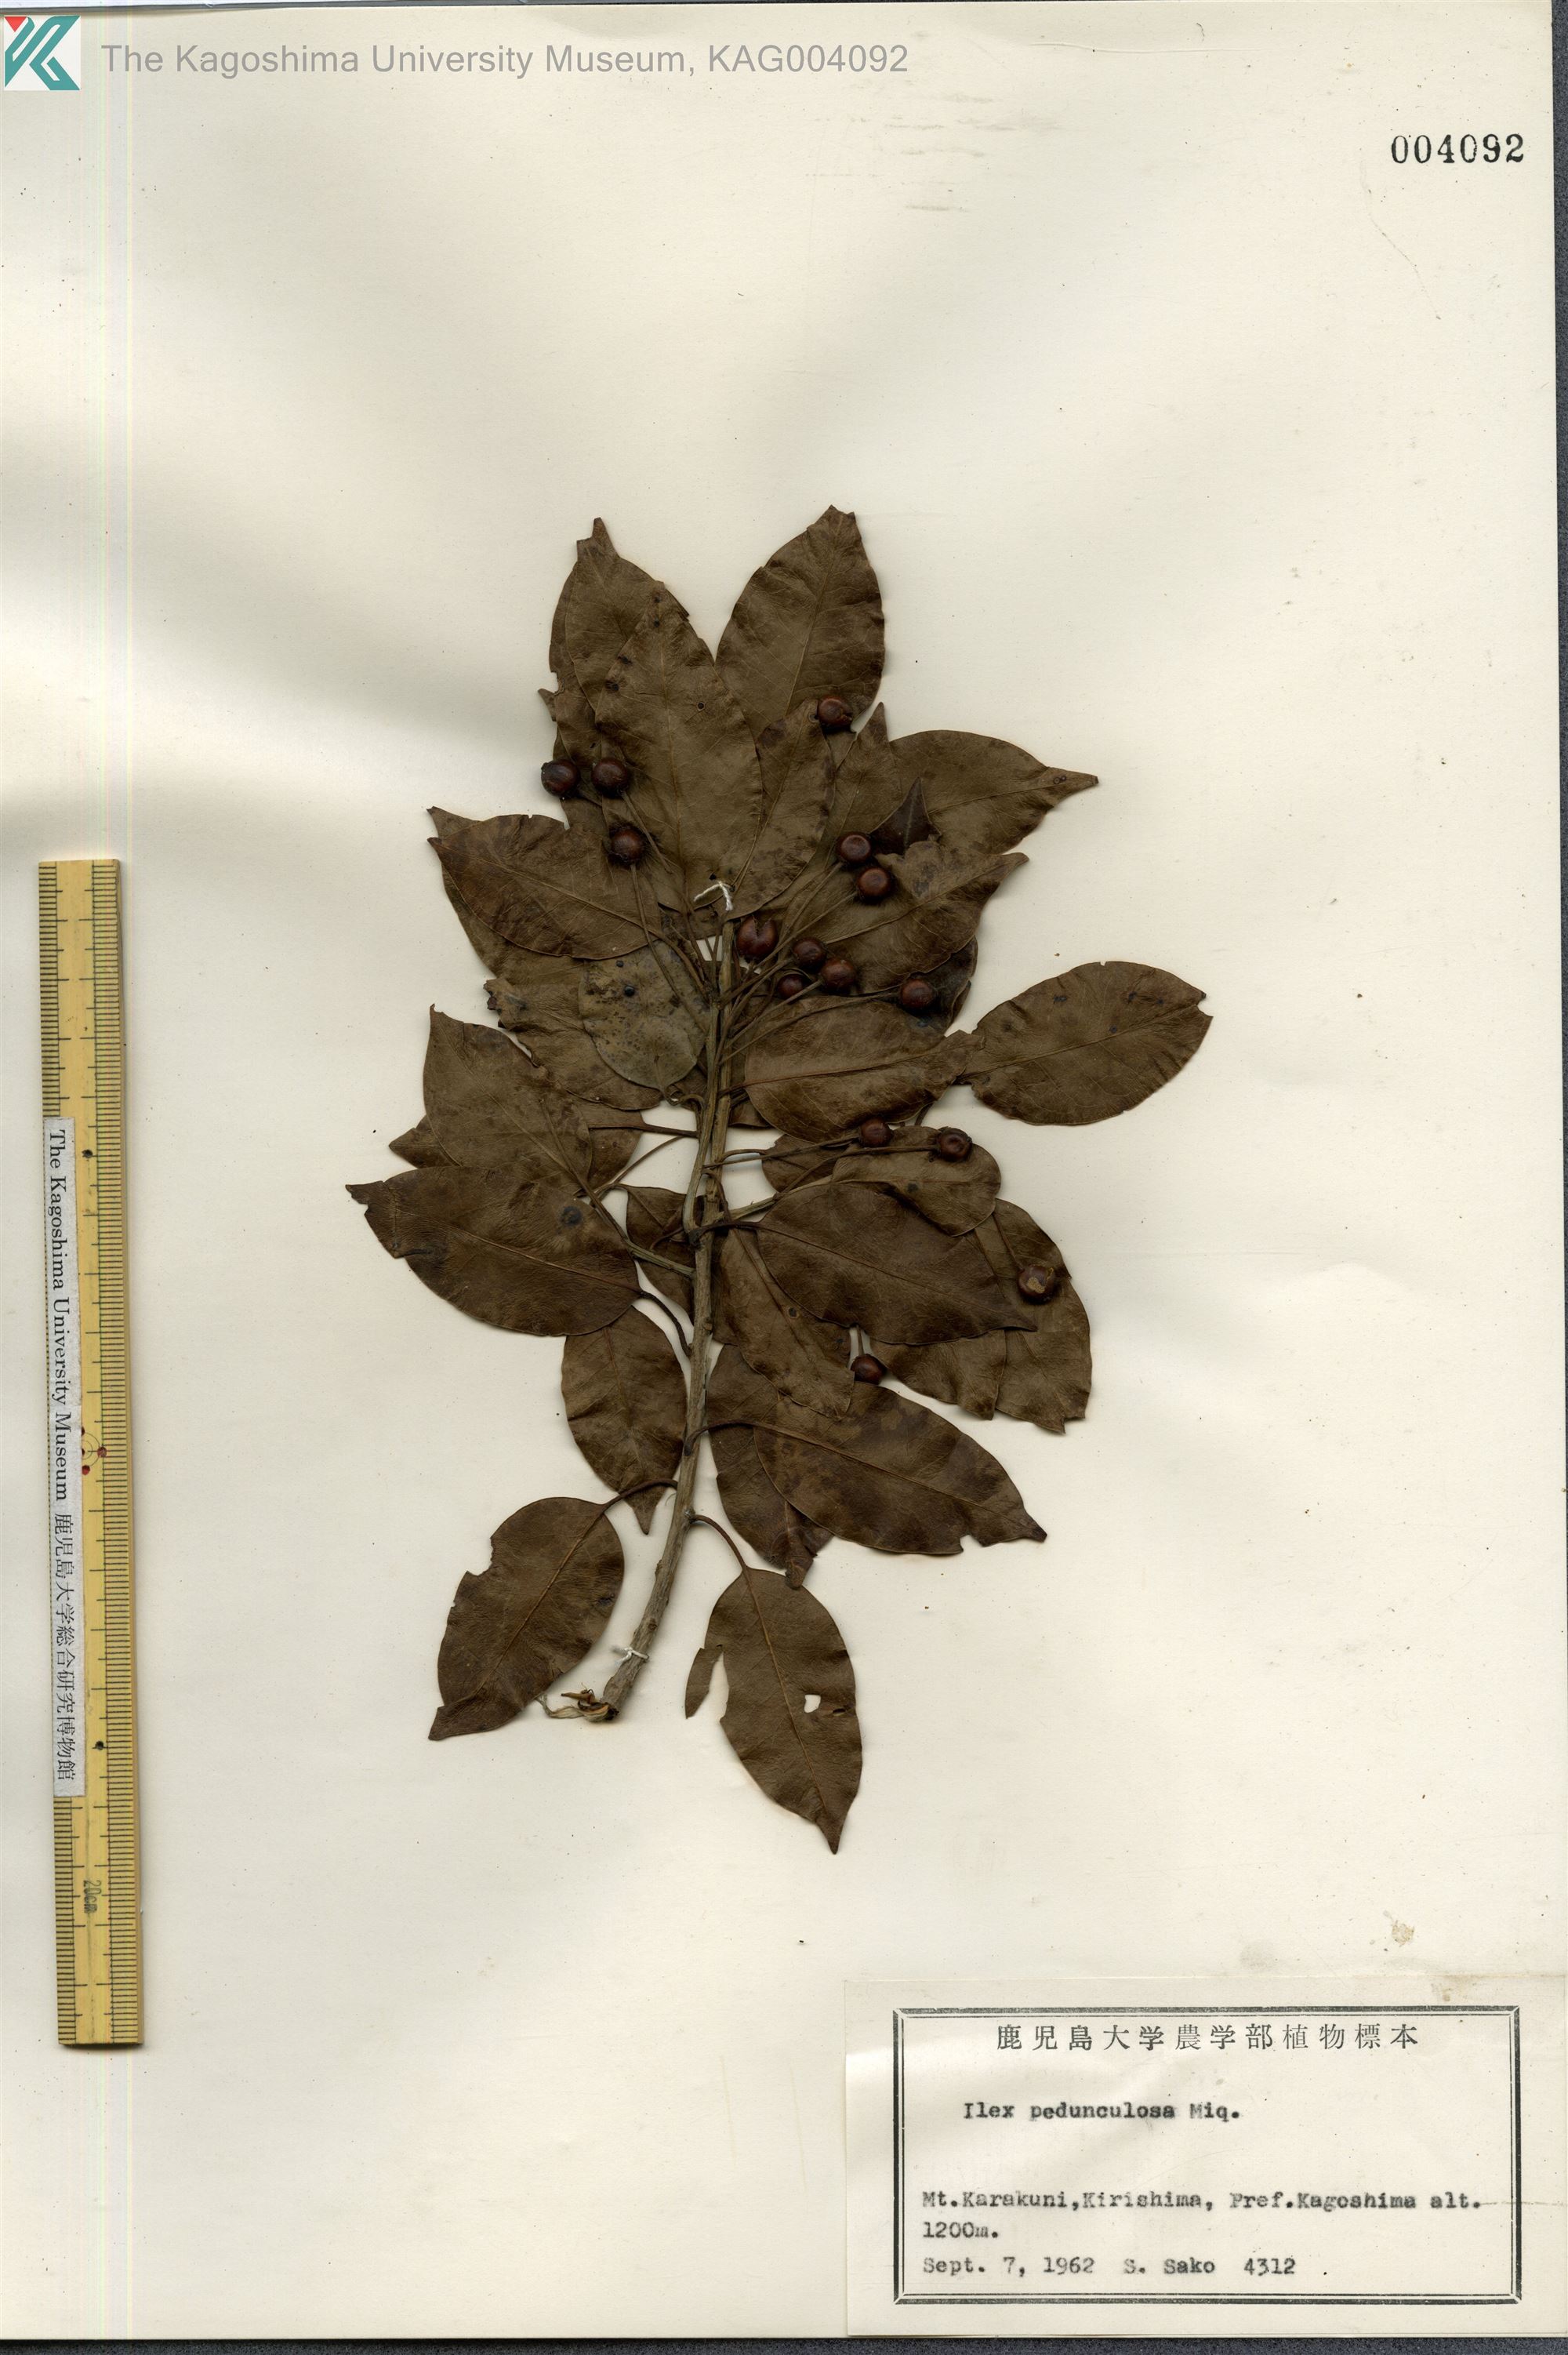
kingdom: Plantae
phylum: Tracheophyta
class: Magnoliopsida
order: Aquifoliales
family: Aquifoliaceae
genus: Ilex
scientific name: Ilex pedunculosa
